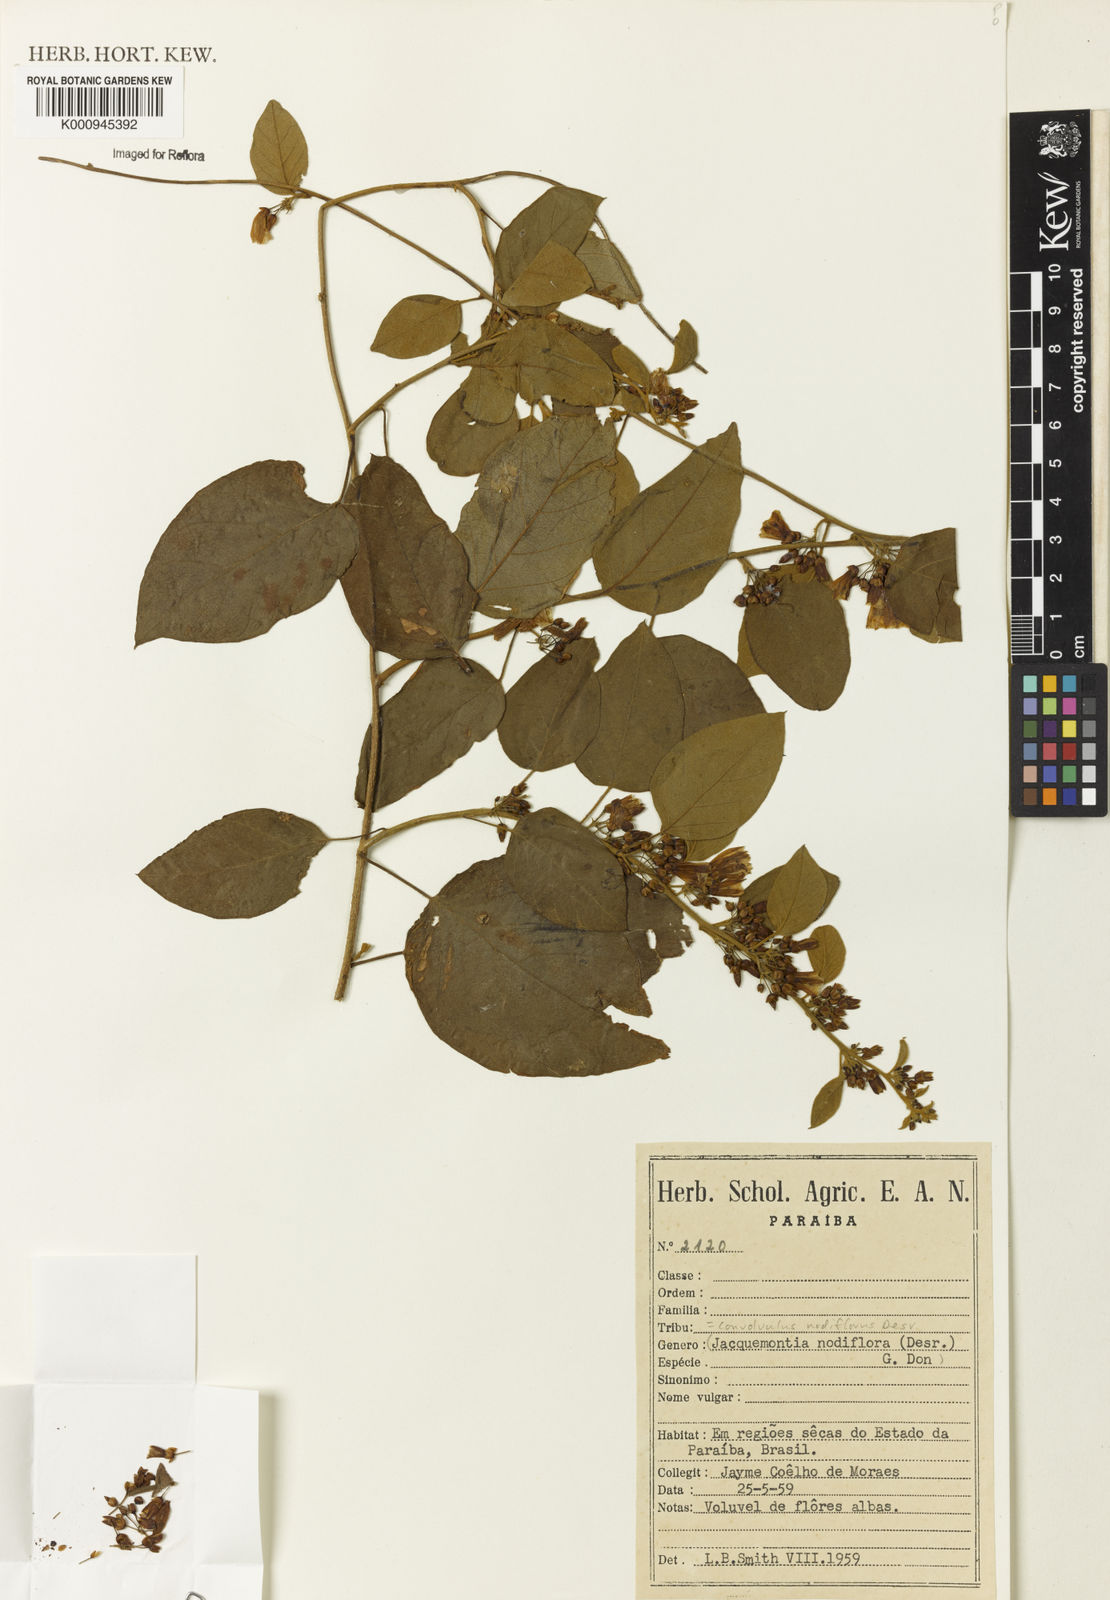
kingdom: Plantae
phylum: Tracheophyta
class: Magnoliopsida
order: Solanales
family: Convolvulaceae
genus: Jacquemontia
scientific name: Jacquemontia nodiflora
